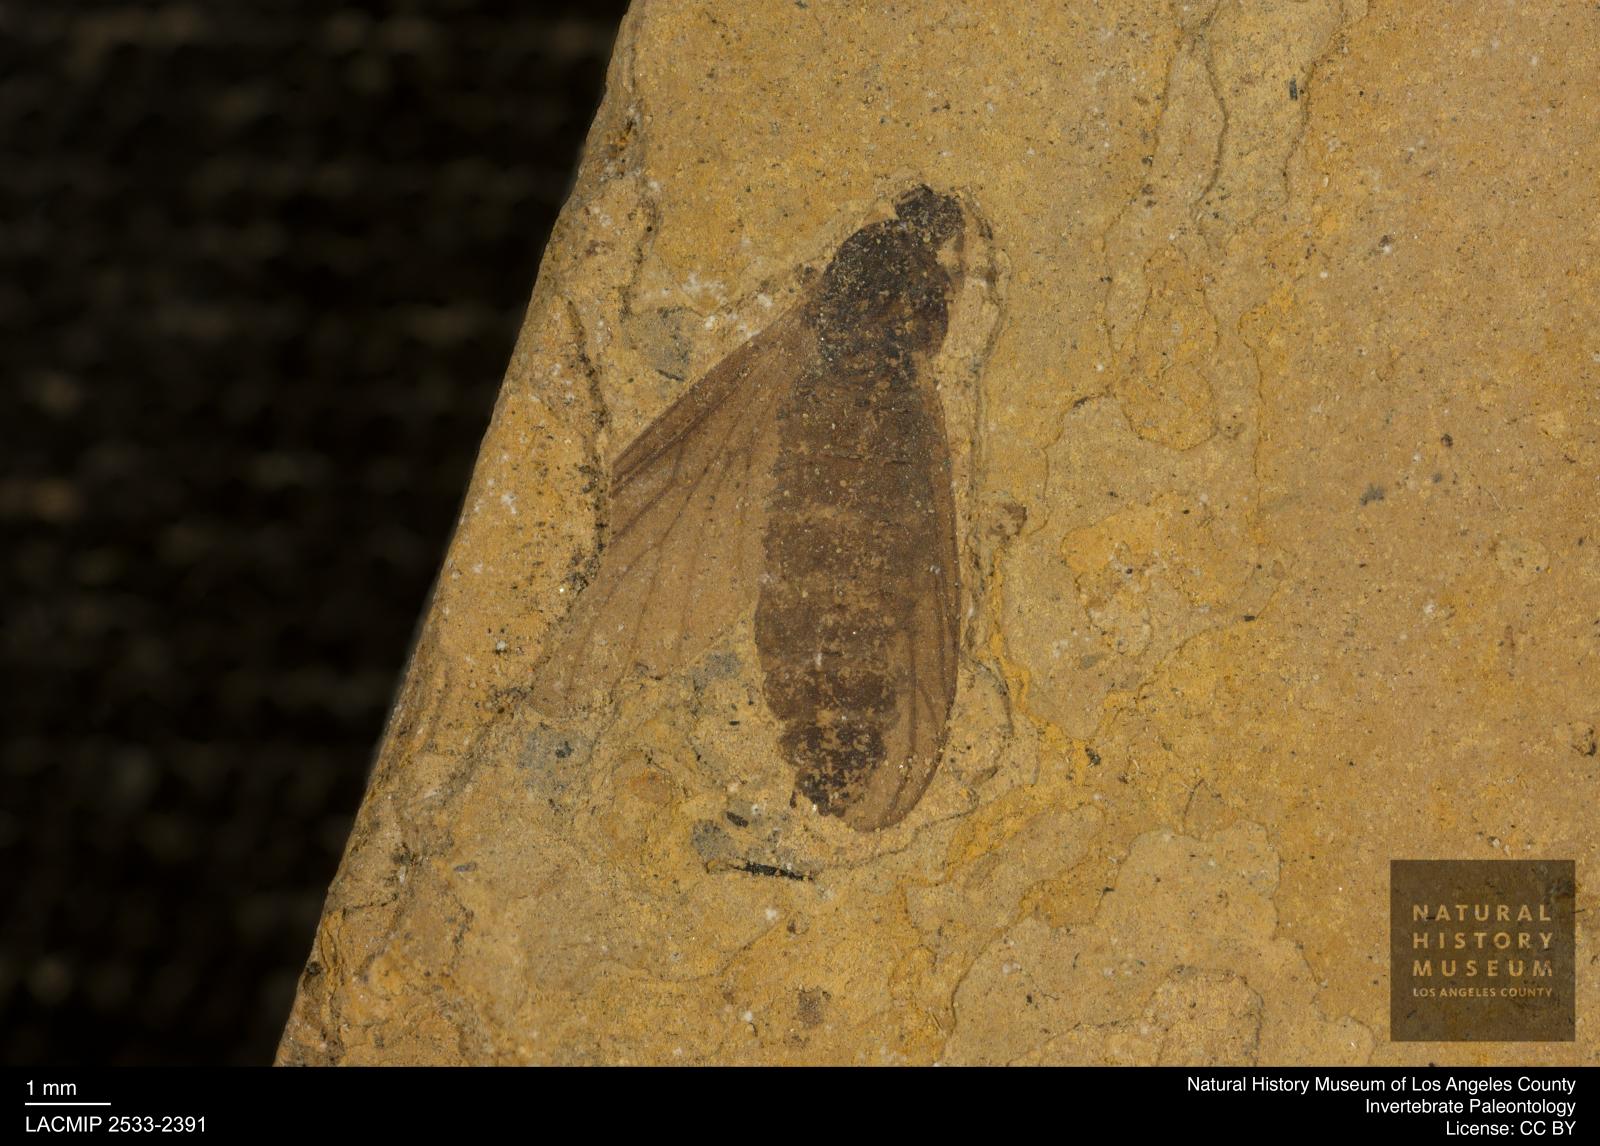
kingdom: Animalia
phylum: Arthropoda
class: Insecta
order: Diptera
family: Bibionidae
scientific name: Bibionidae
